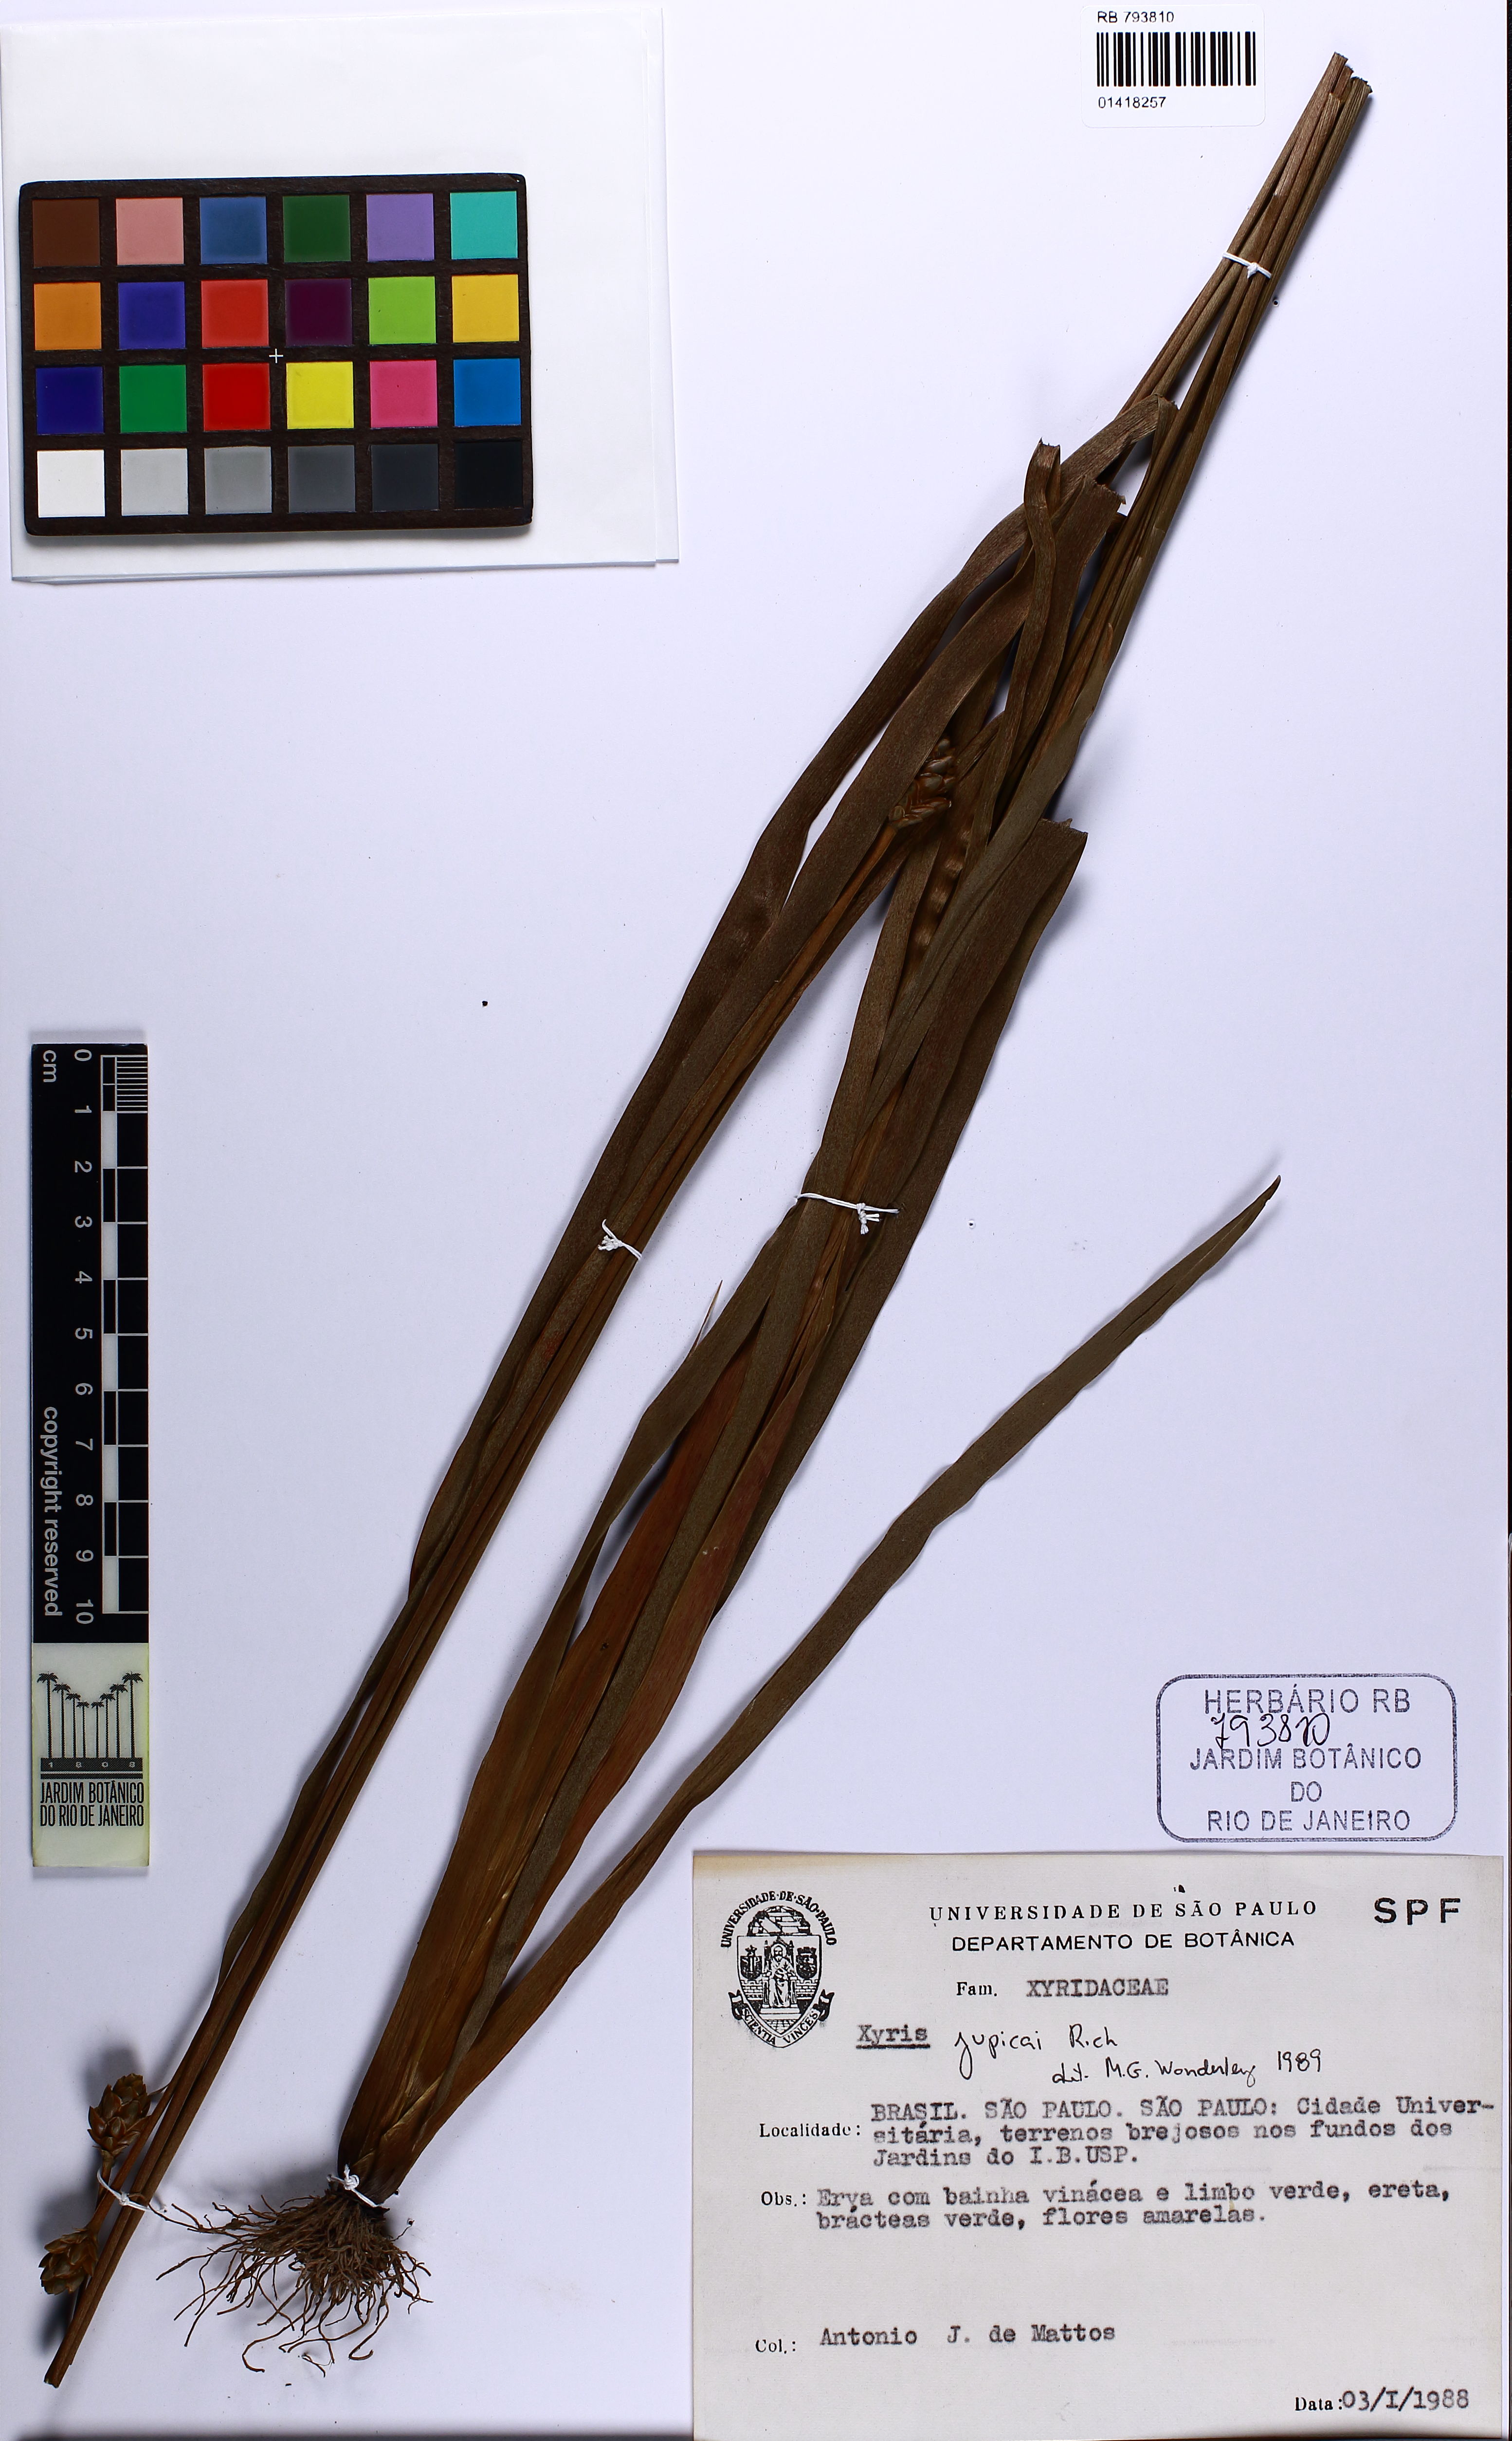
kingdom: Plantae
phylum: Tracheophyta
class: Liliopsida
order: Poales
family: Xyridaceae
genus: Xyris
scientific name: Xyris jupicai
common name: Richard's yelloweyed grass
